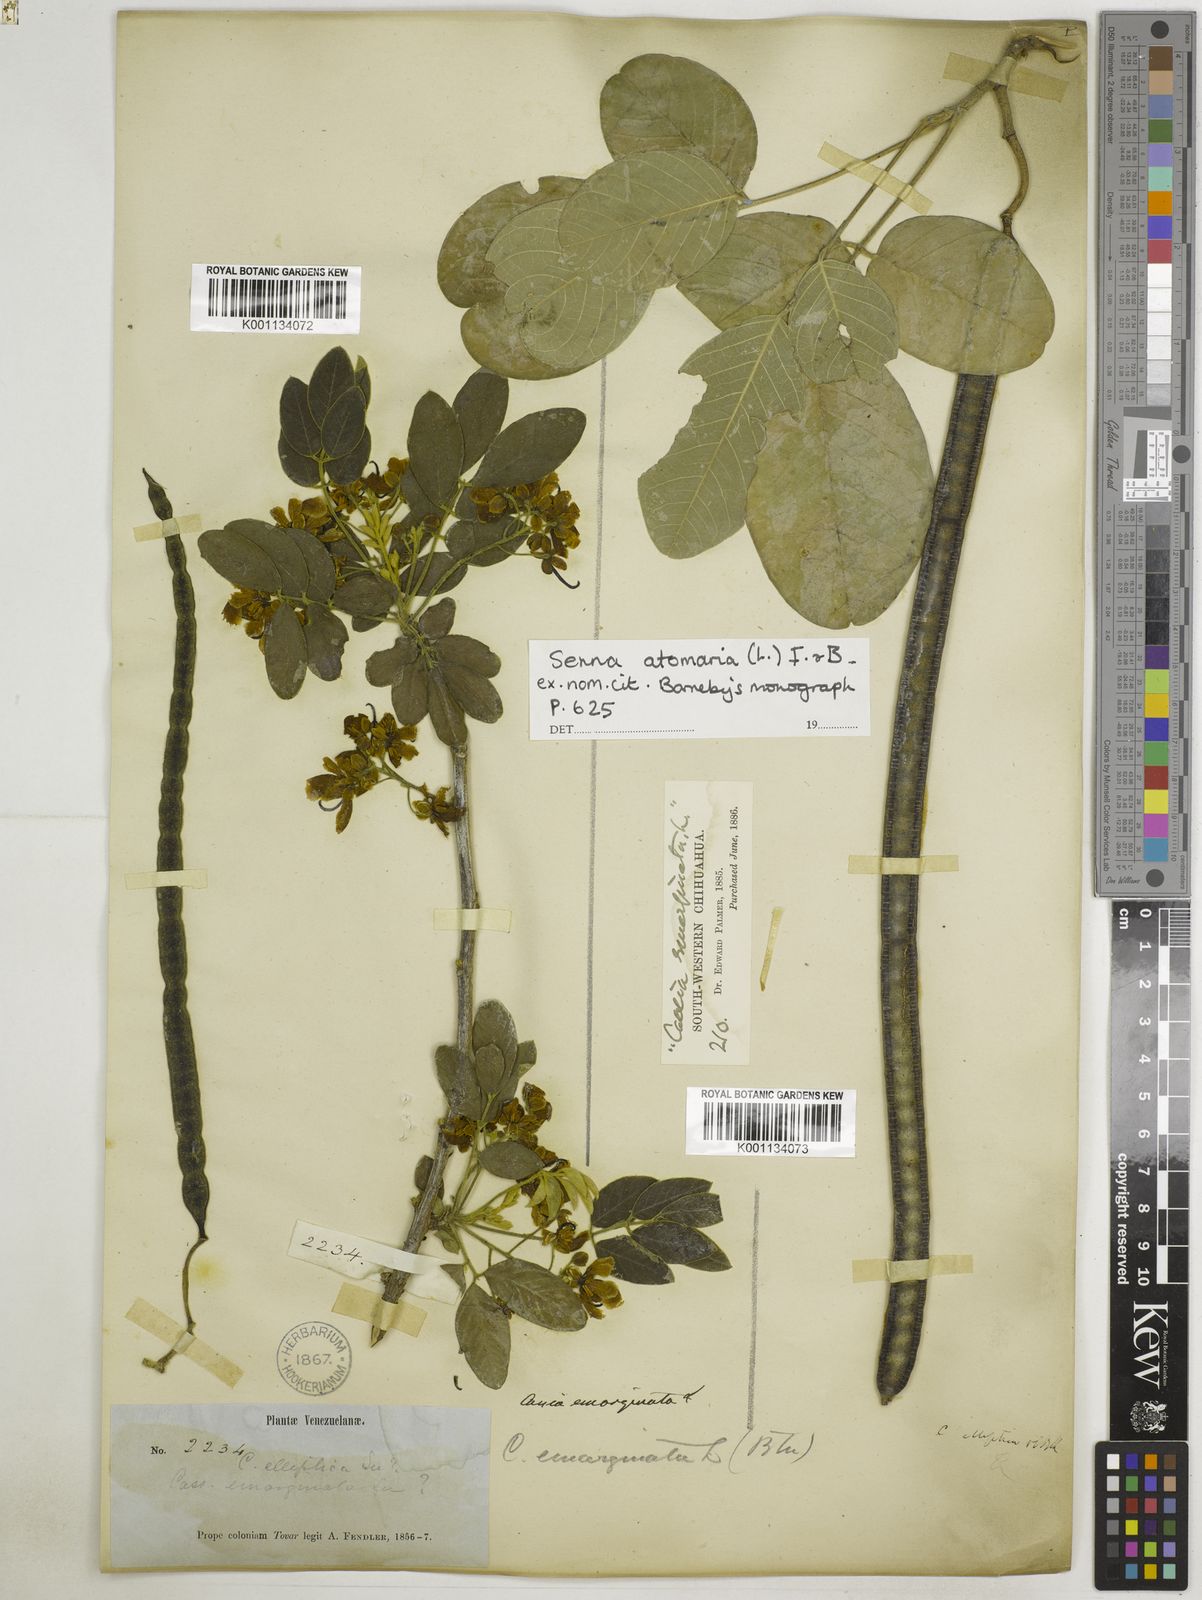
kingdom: Plantae
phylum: Tracheophyta
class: Magnoliopsida
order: Fabales
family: Fabaceae
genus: Senna
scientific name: Senna atomaria
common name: Flor de san jose
